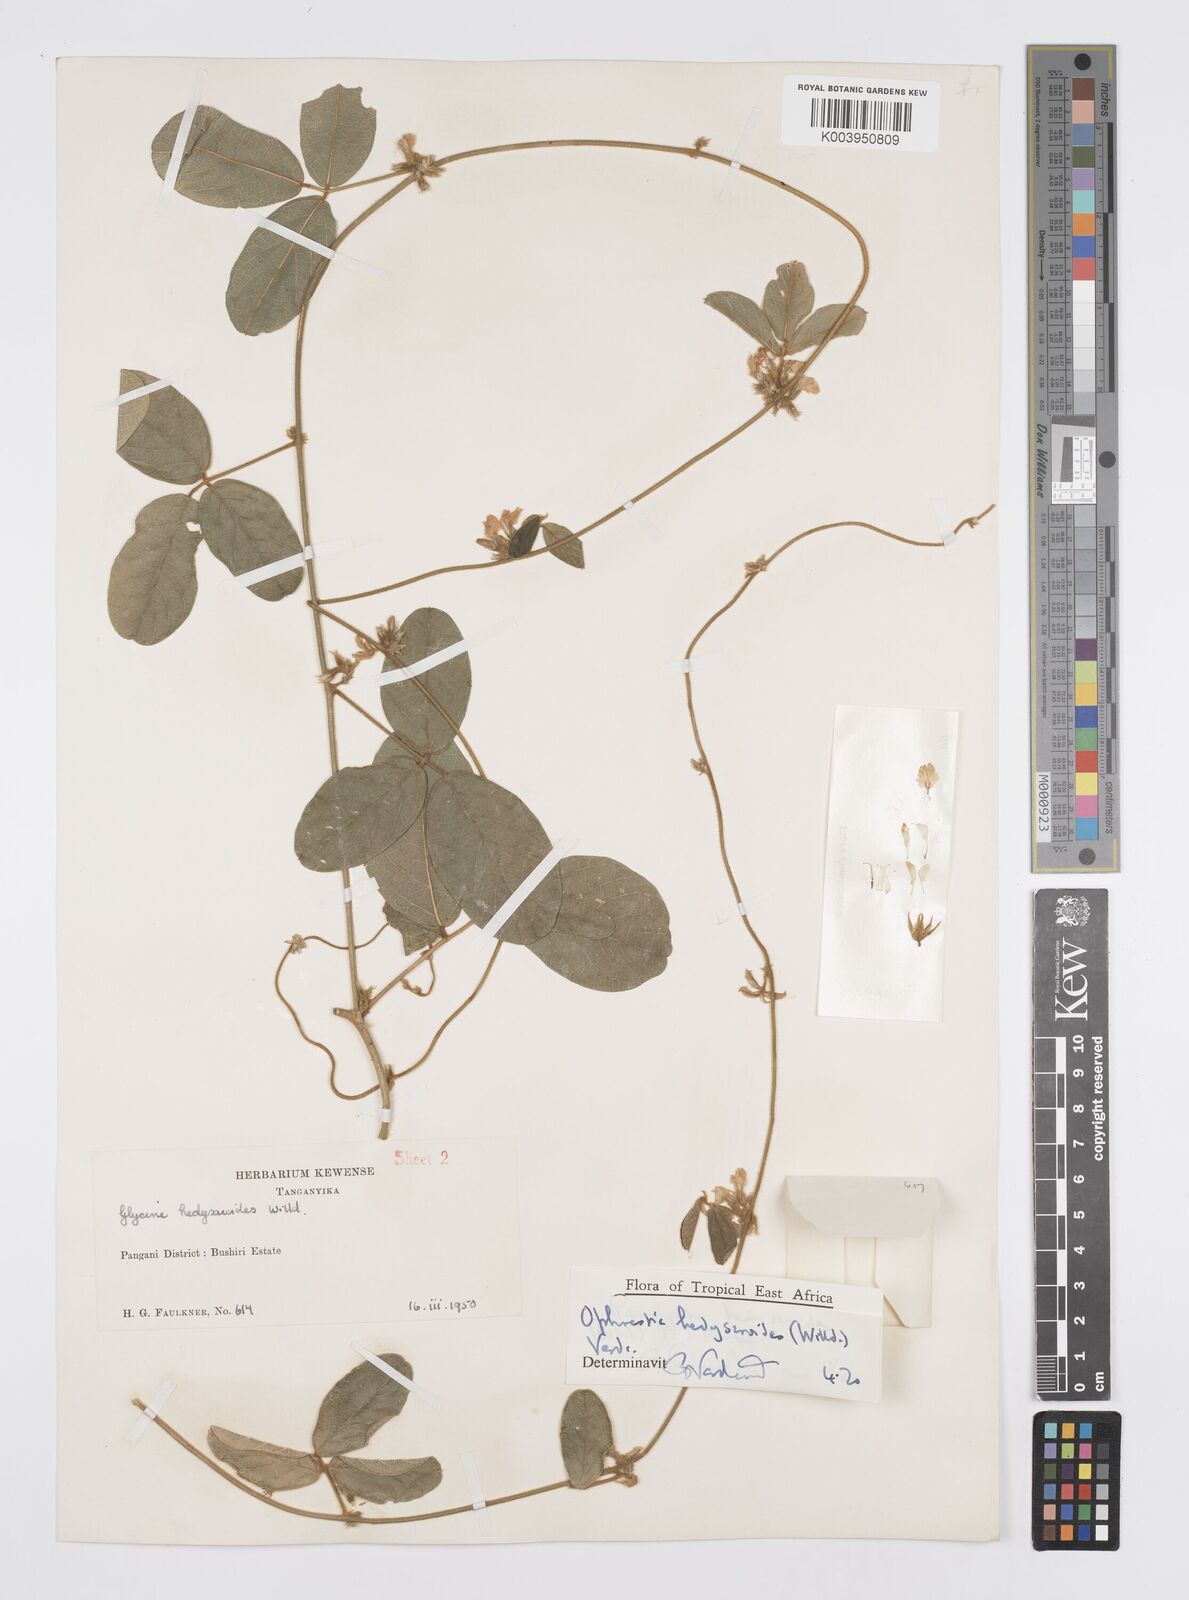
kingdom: Plantae
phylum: Tracheophyta
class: Magnoliopsida
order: Fabales
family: Fabaceae
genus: Ophrestia
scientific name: Ophrestia hedysaroides
